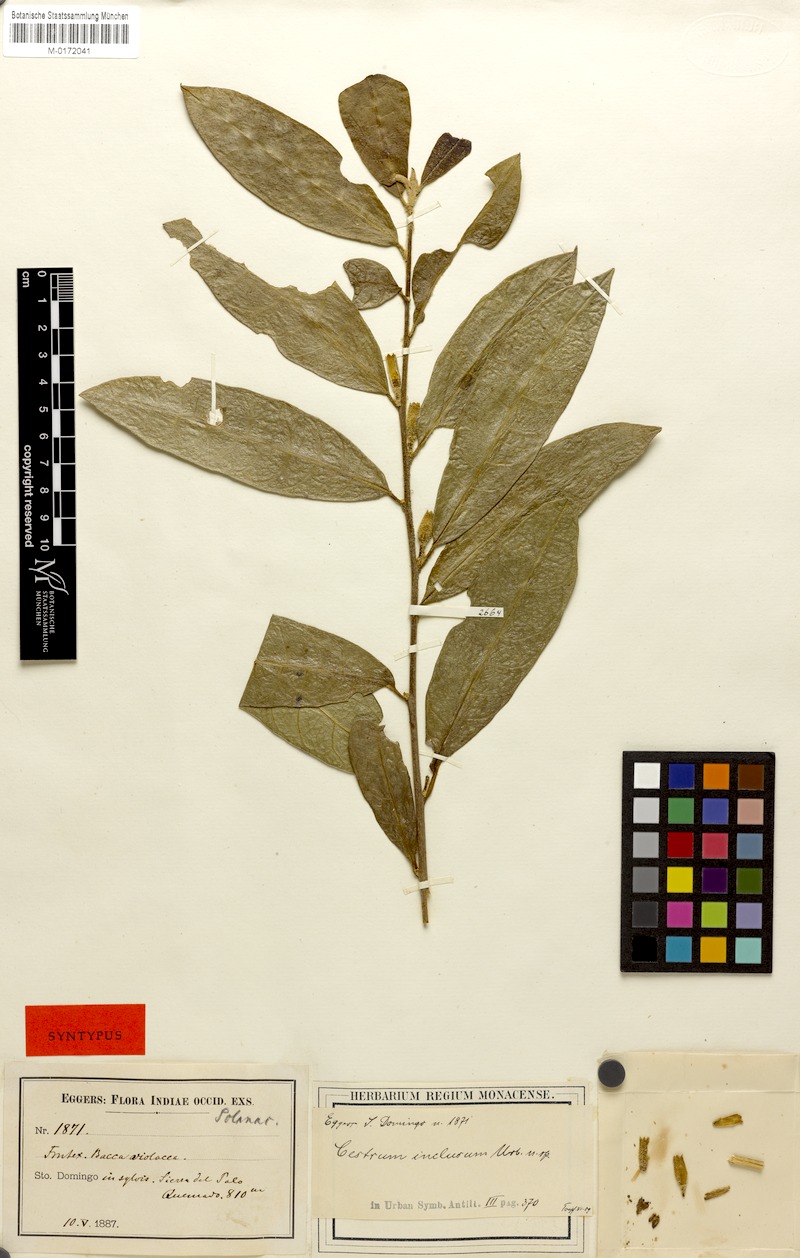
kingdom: Plantae
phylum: Tracheophyta
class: Magnoliopsida
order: Solanales
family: Solanaceae
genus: Cestrum
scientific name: Cestrum inclusum
